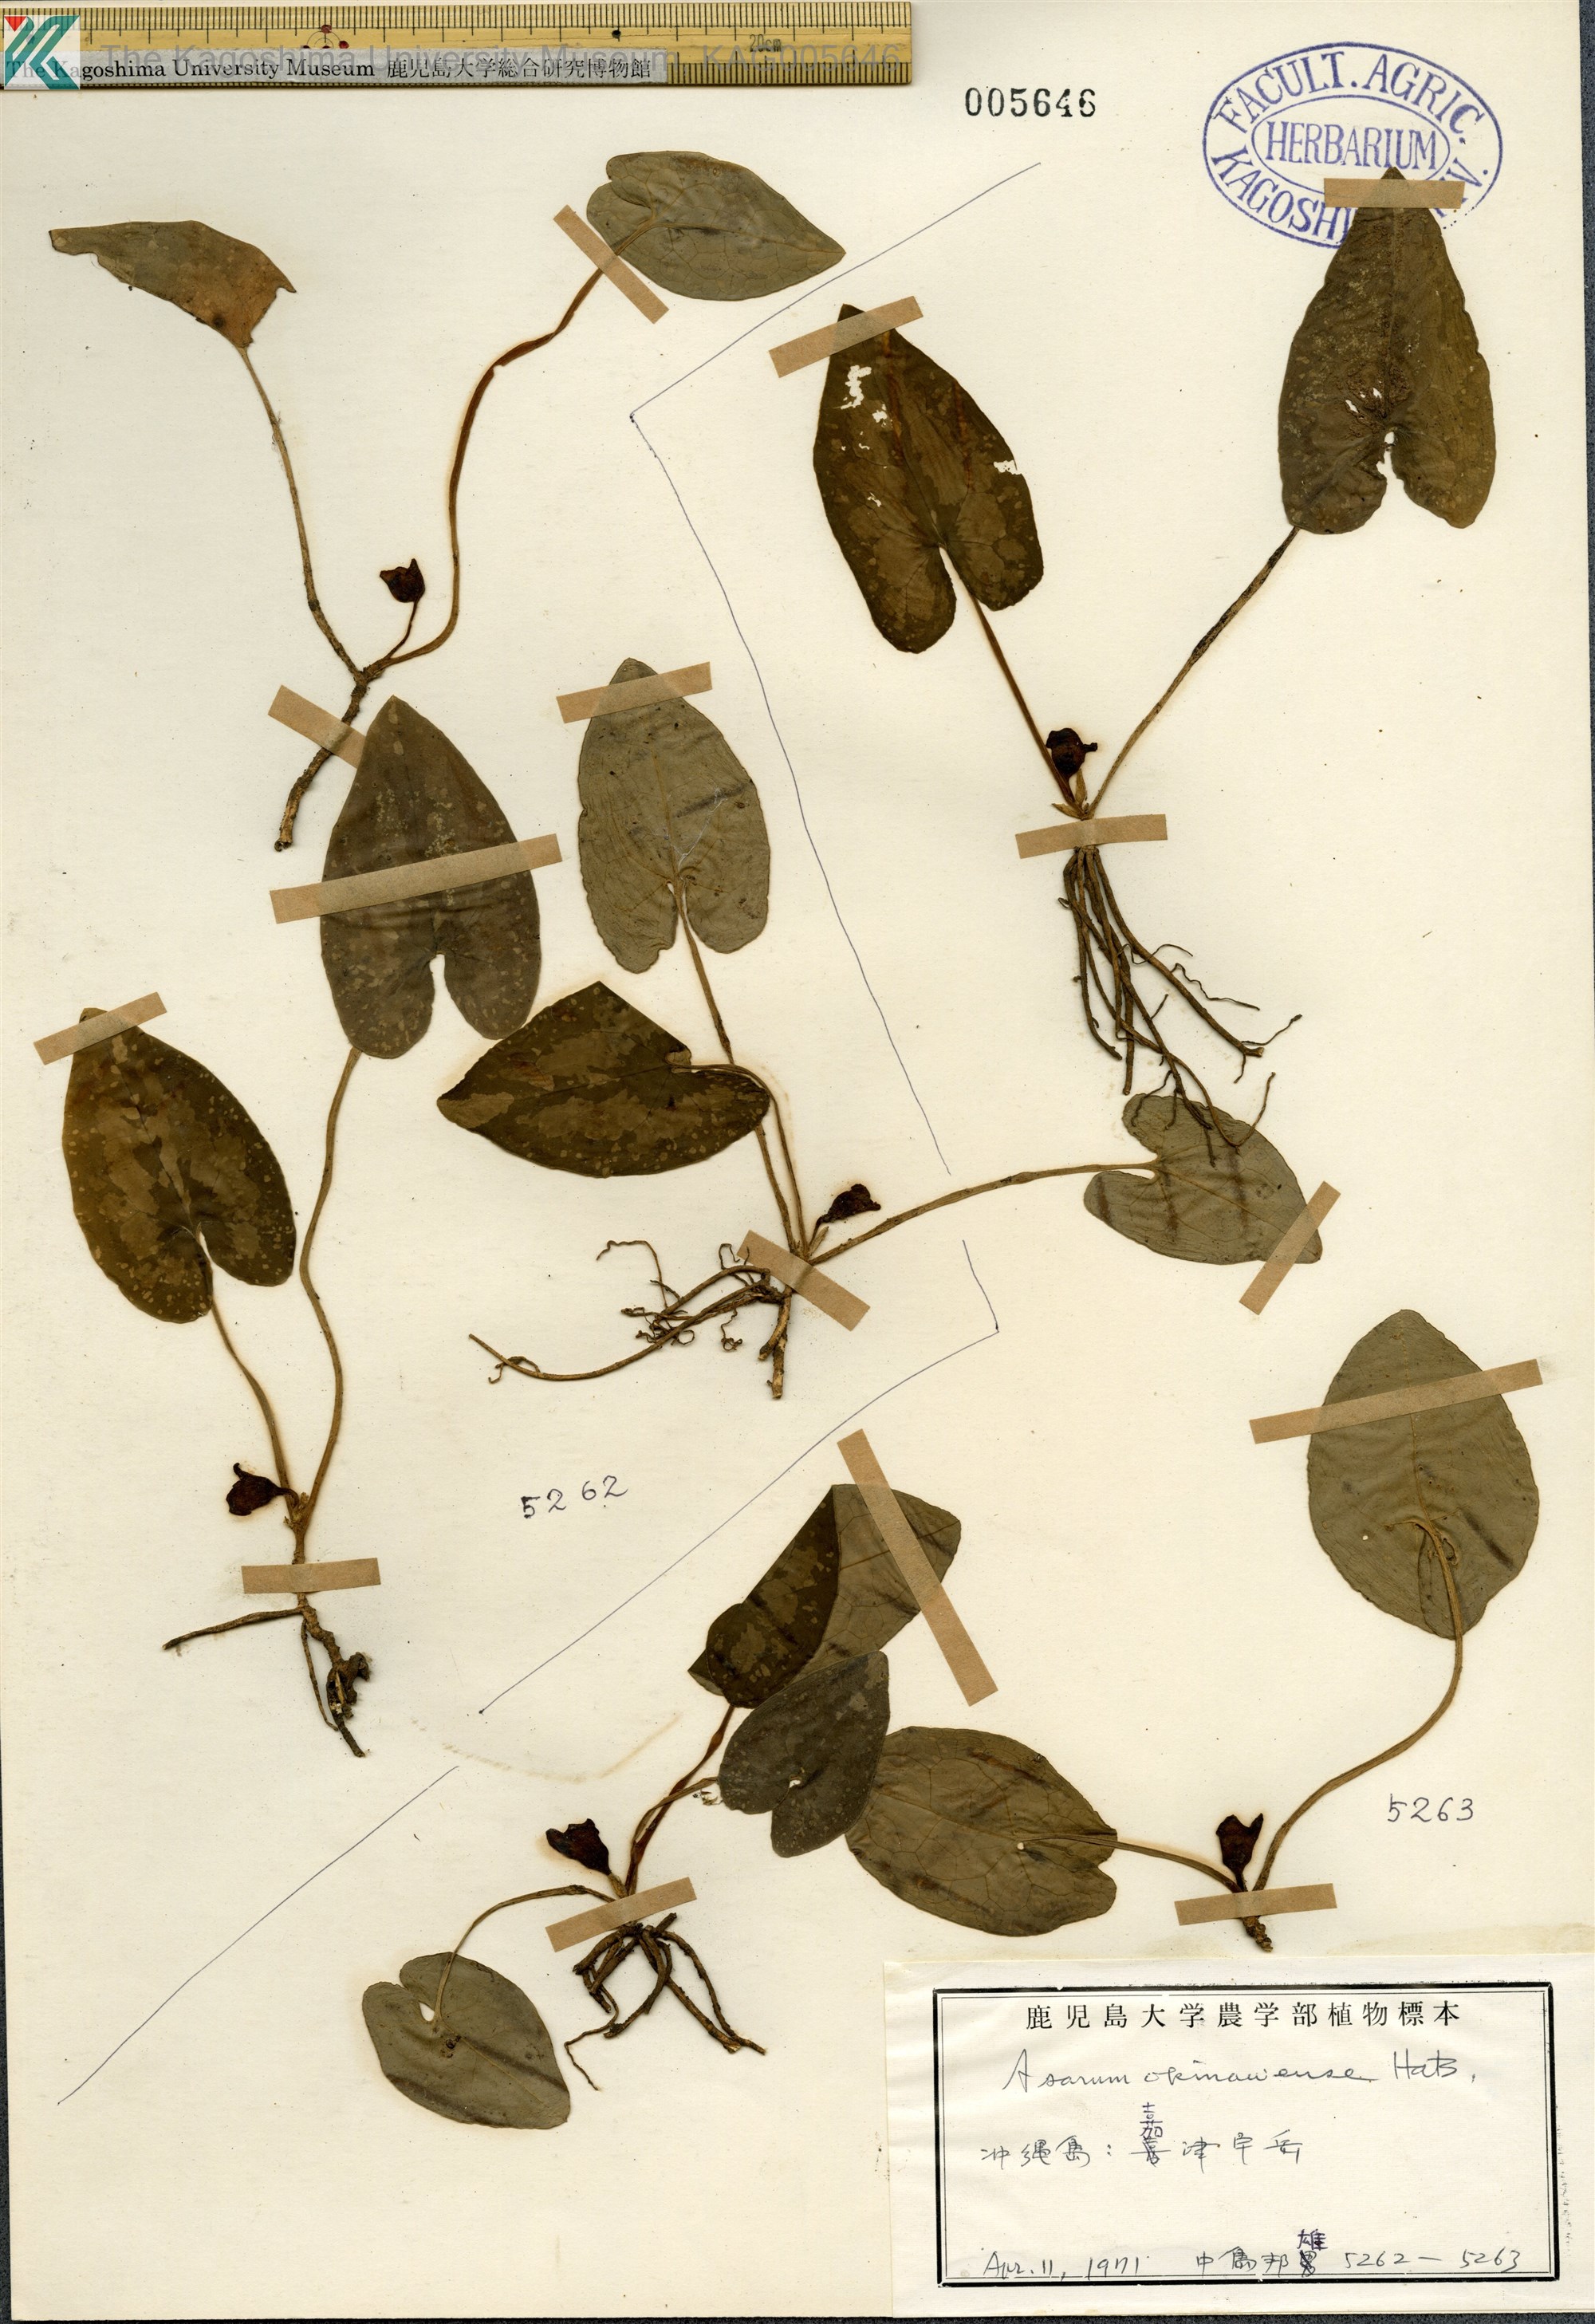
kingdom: Plantae
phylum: Tracheophyta
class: Magnoliopsida
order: Piperales
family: Aristolochiaceae
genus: Asarum
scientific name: Asarum okinawense
